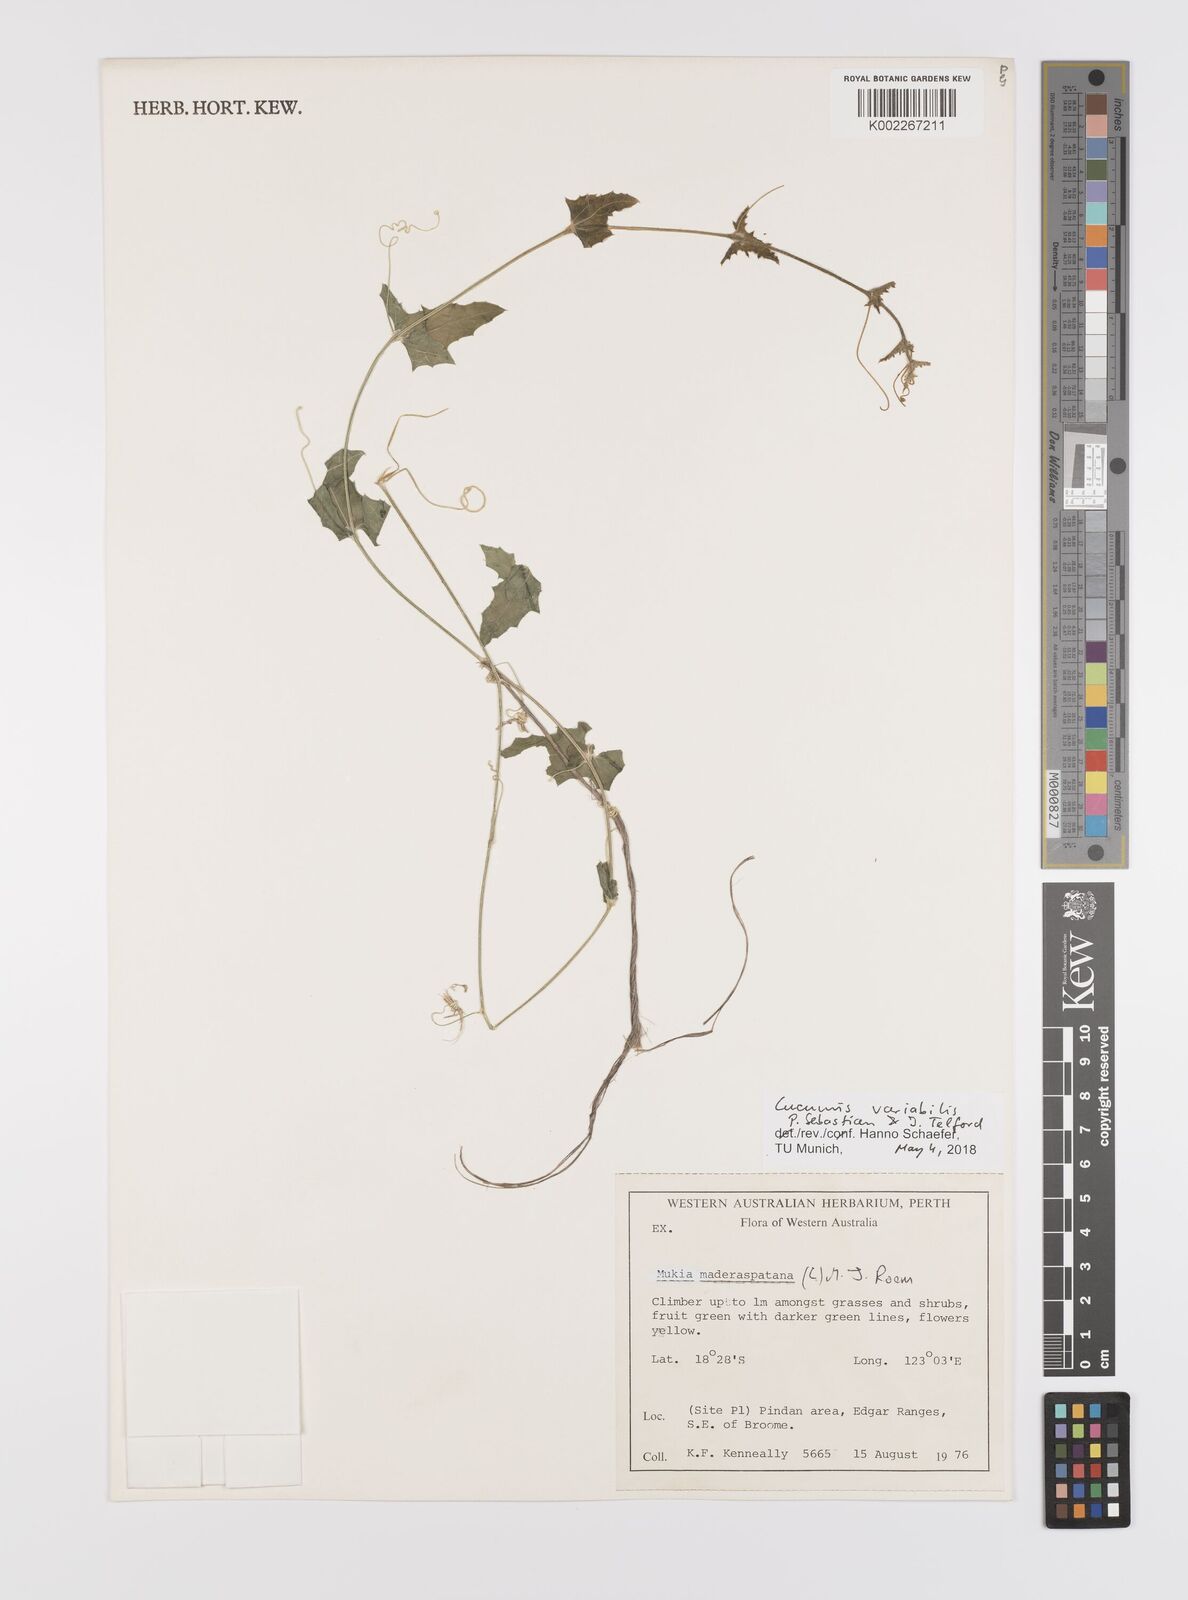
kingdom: Plantae
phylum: Tracheophyta
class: Magnoliopsida
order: Cucurbitales
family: Cucurbitaceae
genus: Cucumis
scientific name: Cucumis variabilis
